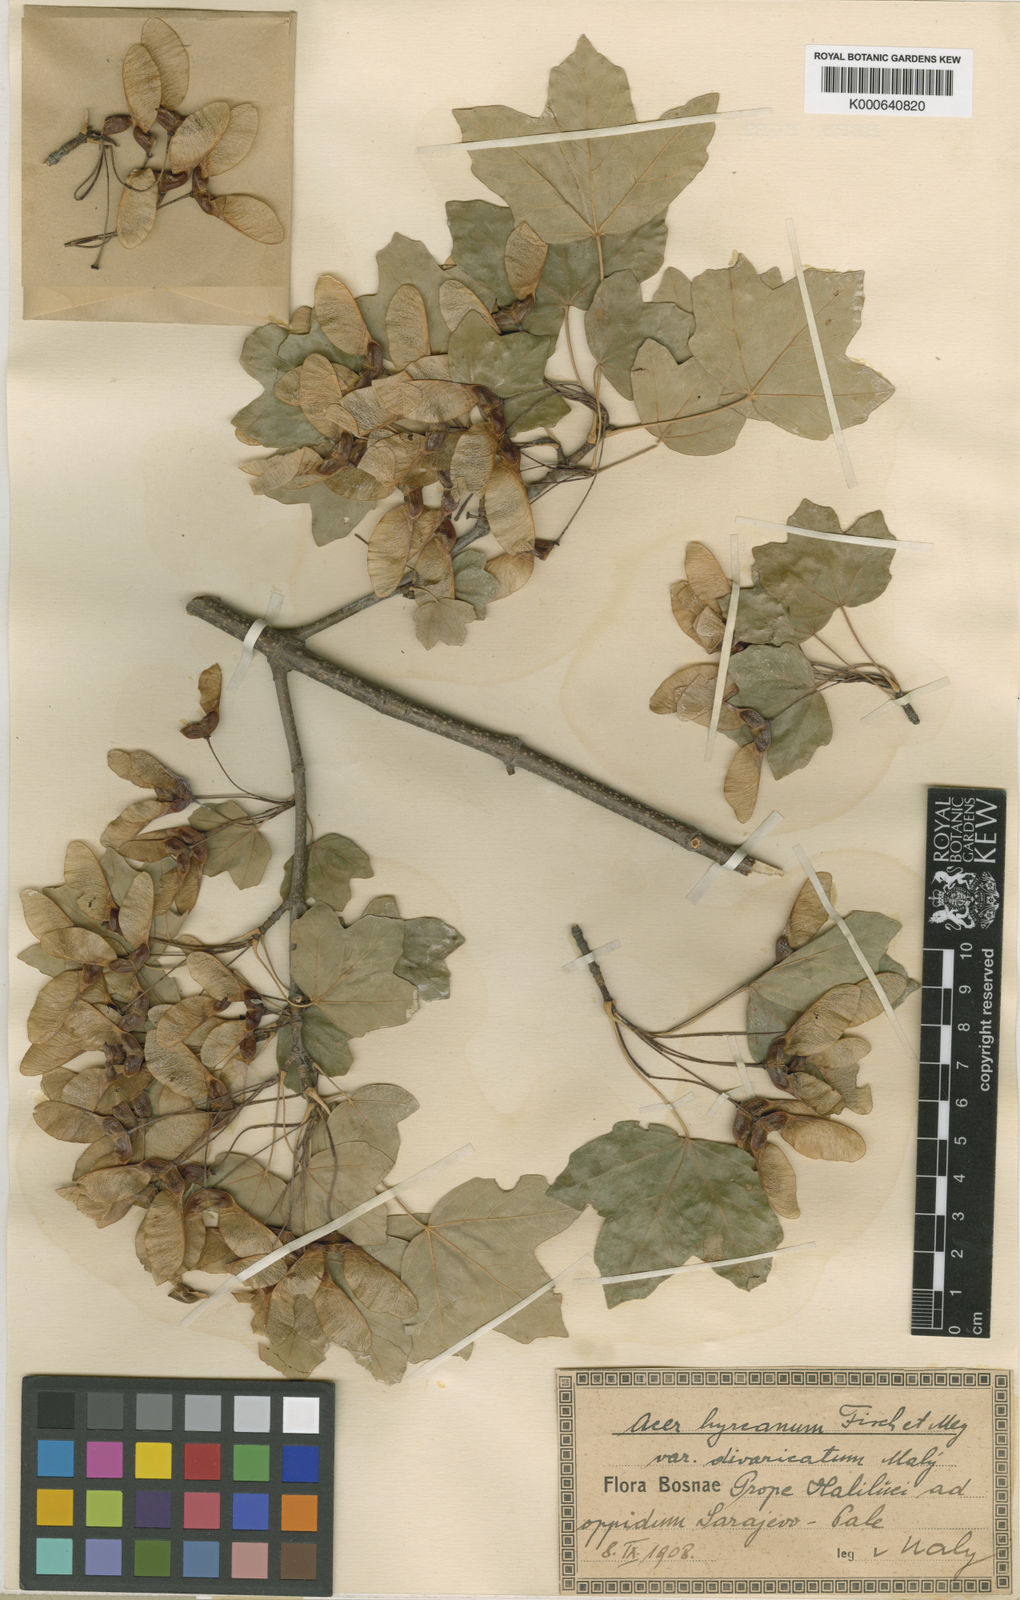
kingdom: Plantae
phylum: Tracheophyta
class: Magnoliopsida
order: Sapindales
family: Sapindaceae
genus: Acer
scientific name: Acer hyrcanum
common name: Balkan maple
